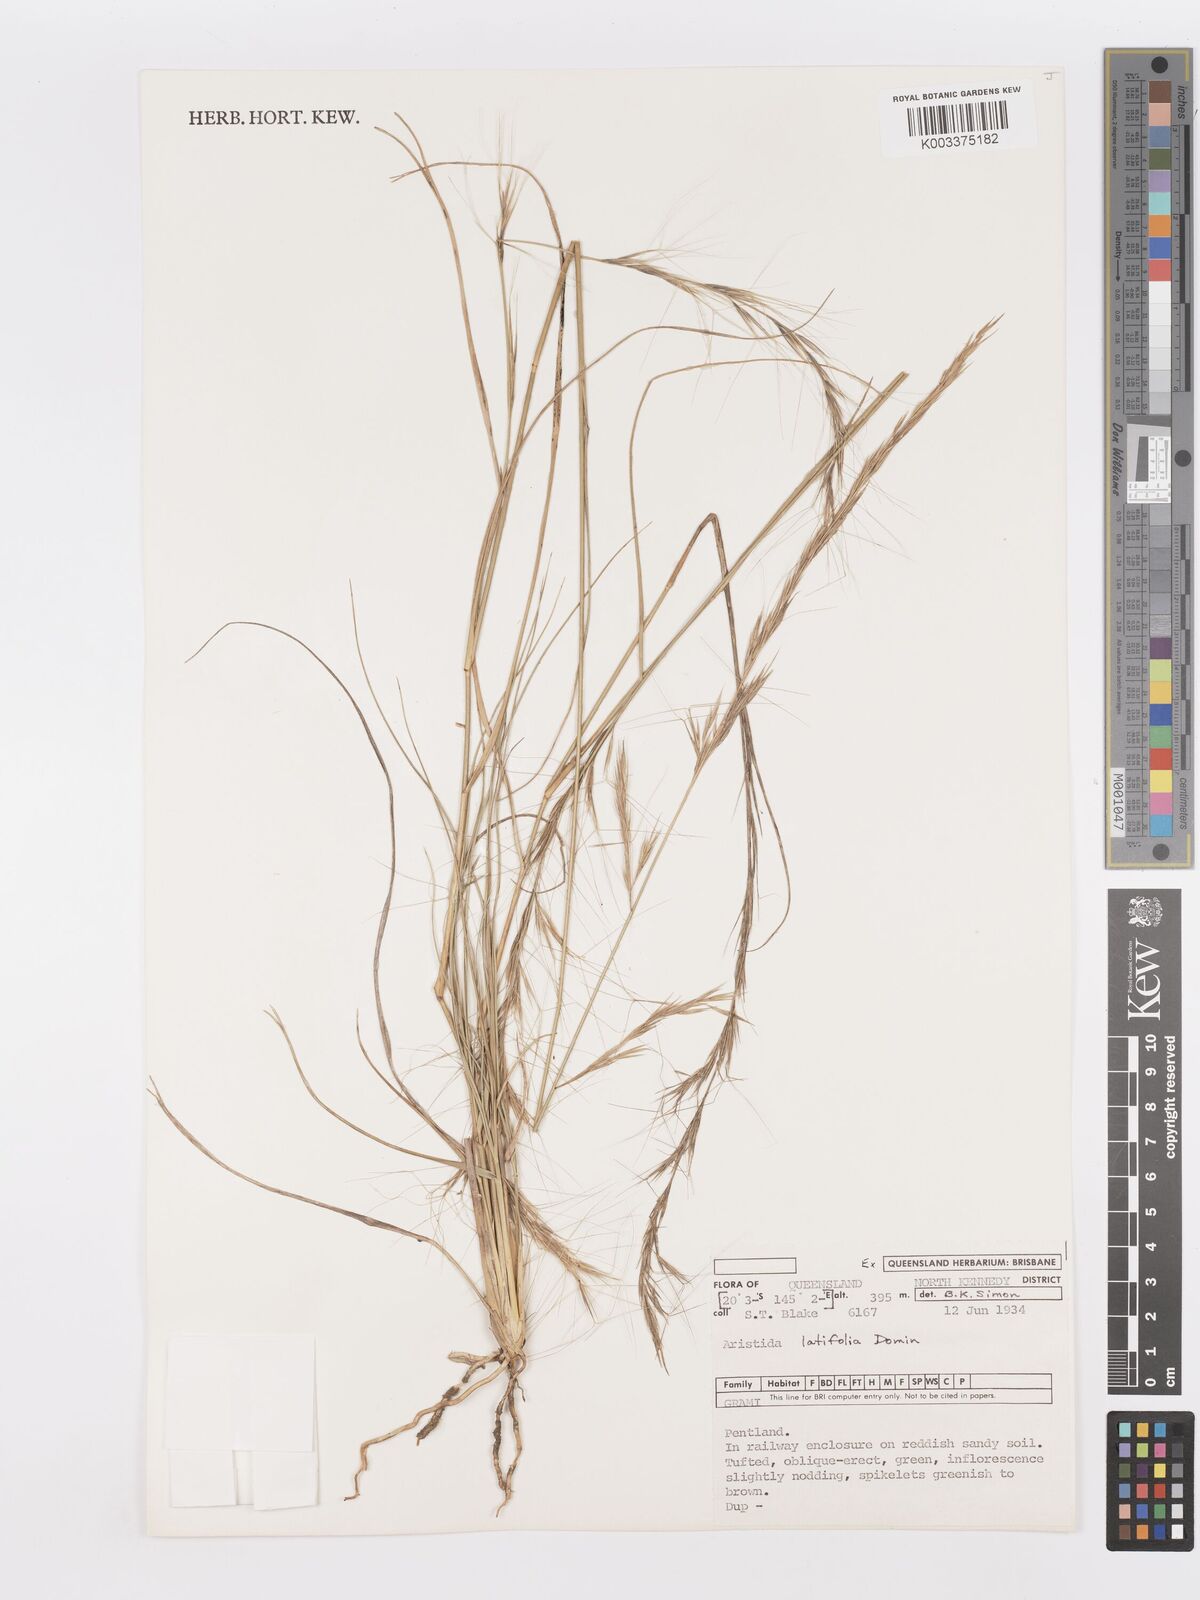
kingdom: Plantae
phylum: Tracheophyta
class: Liliopsida
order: Poales
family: Poaceae
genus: Aristida
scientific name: Aristida latifolia
